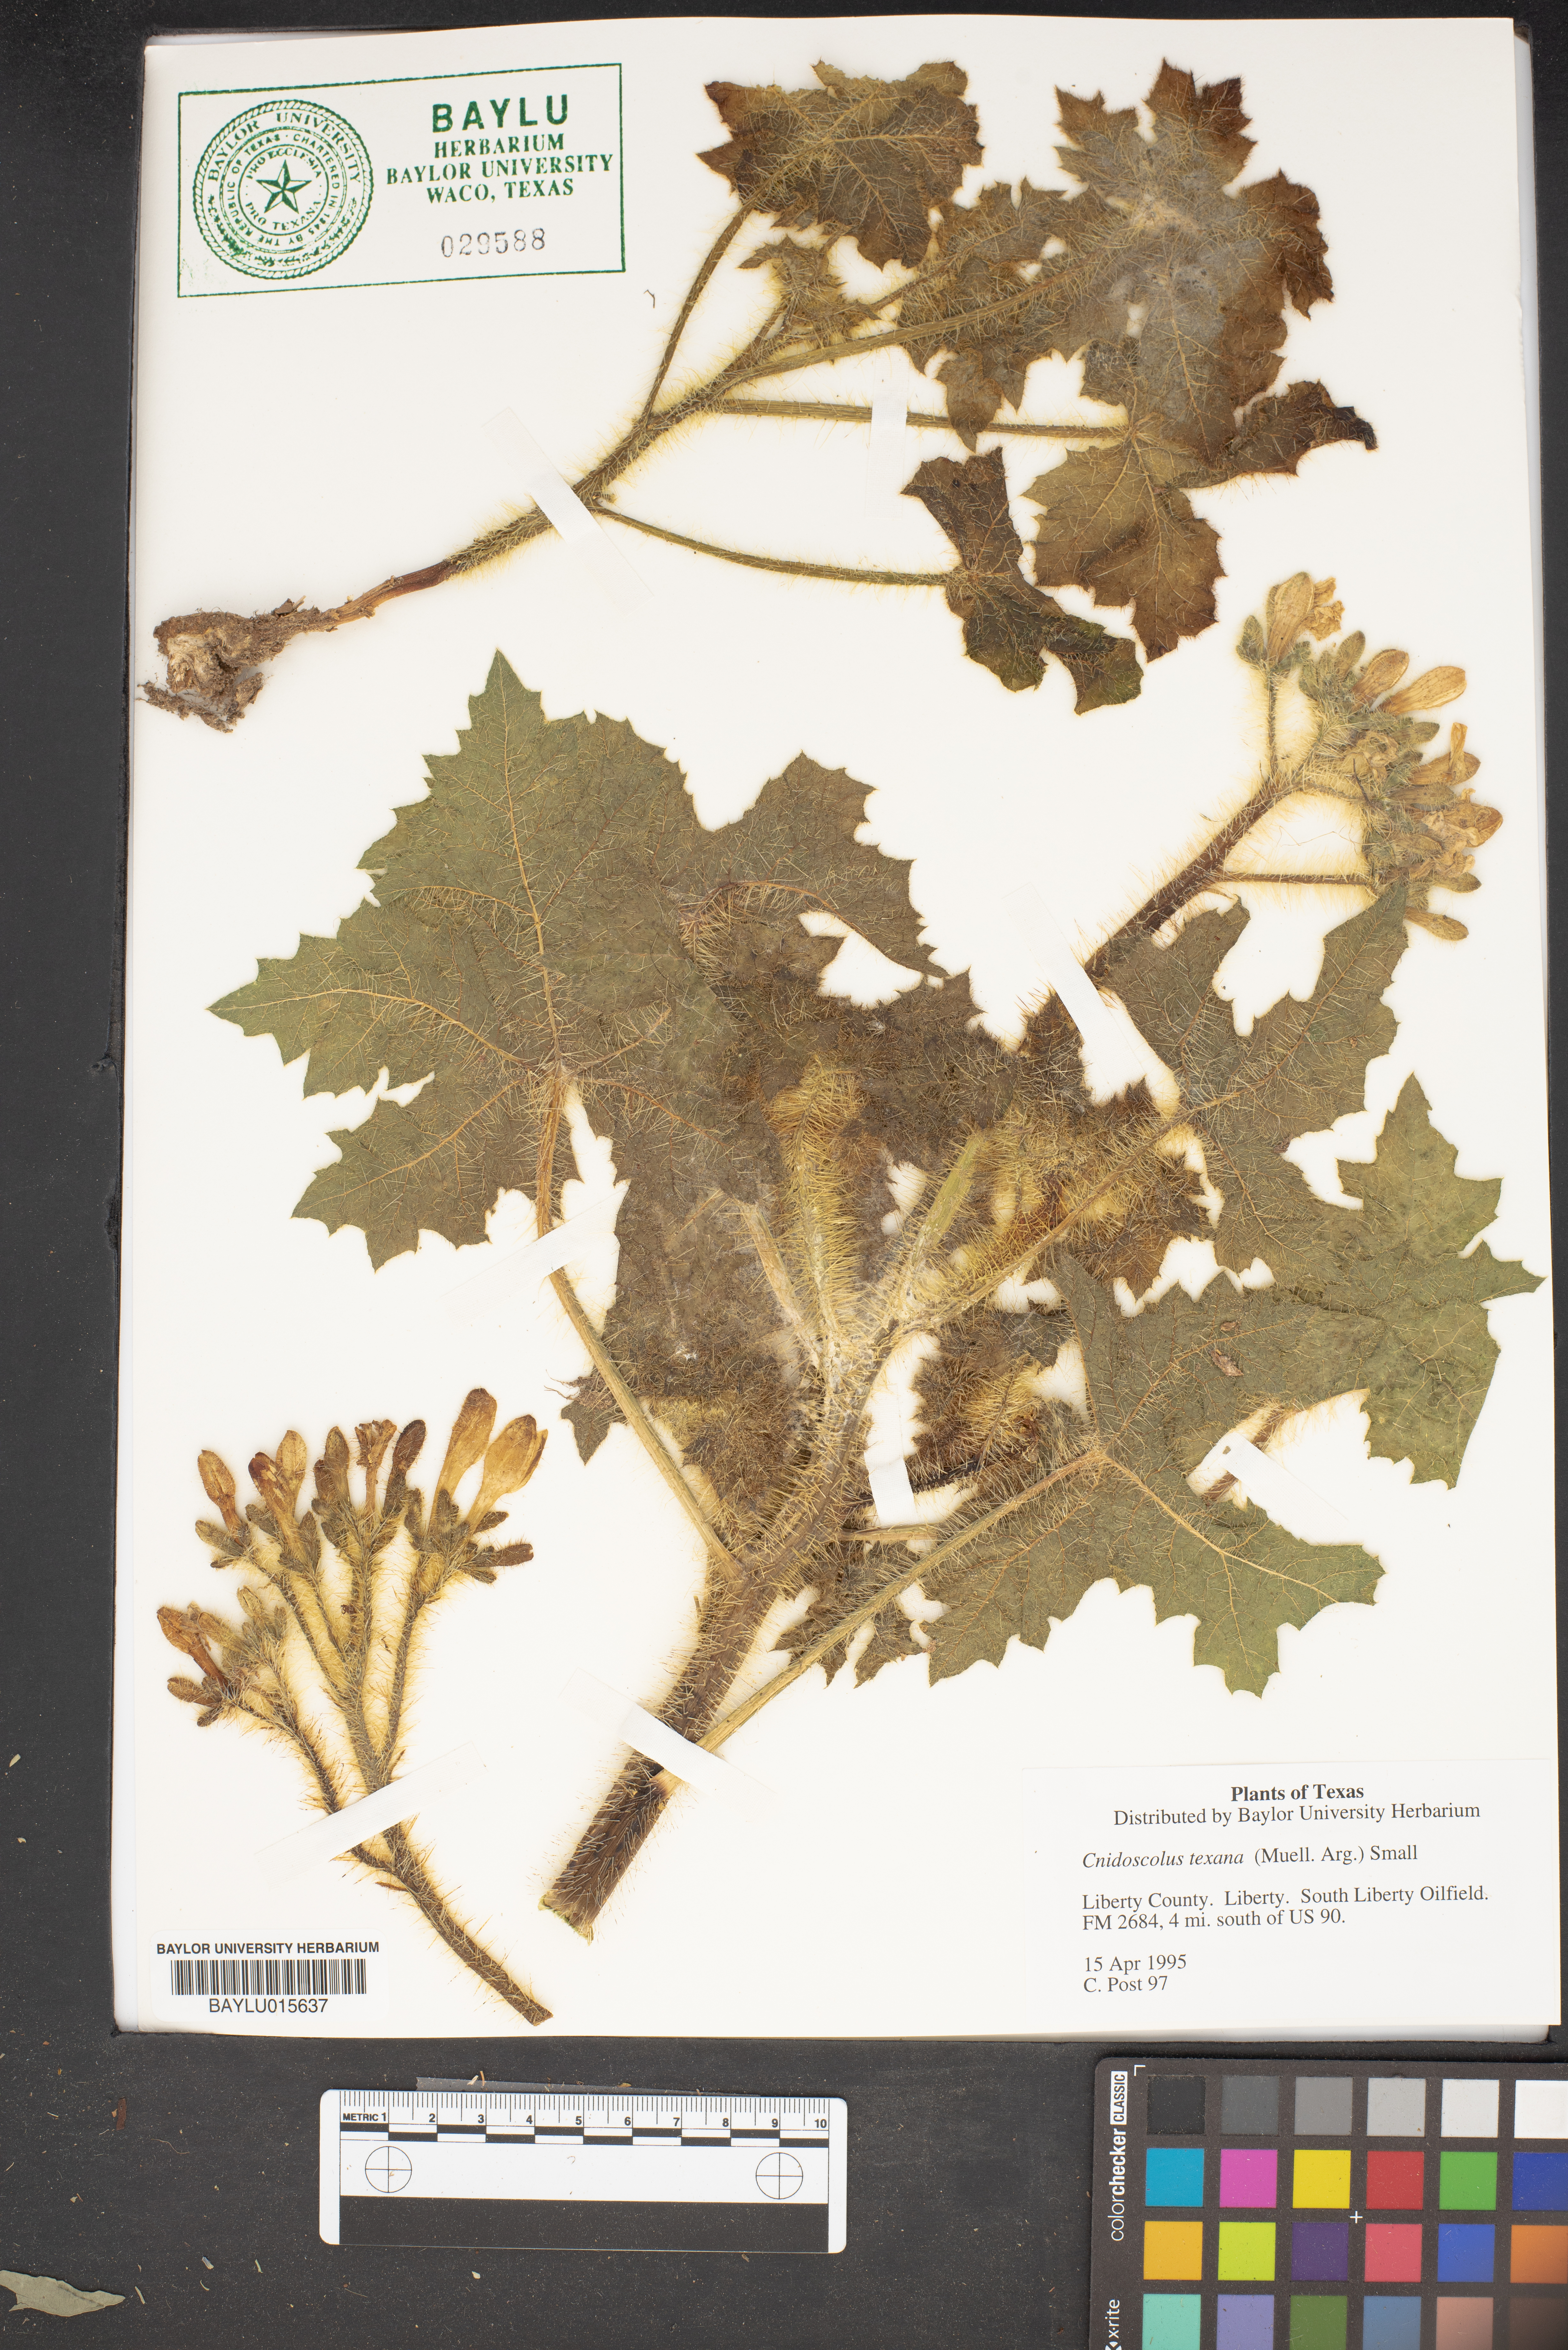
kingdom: Plantae
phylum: Tracheophyta
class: Magnoliopsida
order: Malpighiales
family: Euphorbiaceae
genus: Cnidoscolus
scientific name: Cnidoscolus texanus
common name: Texas bull-nettle
